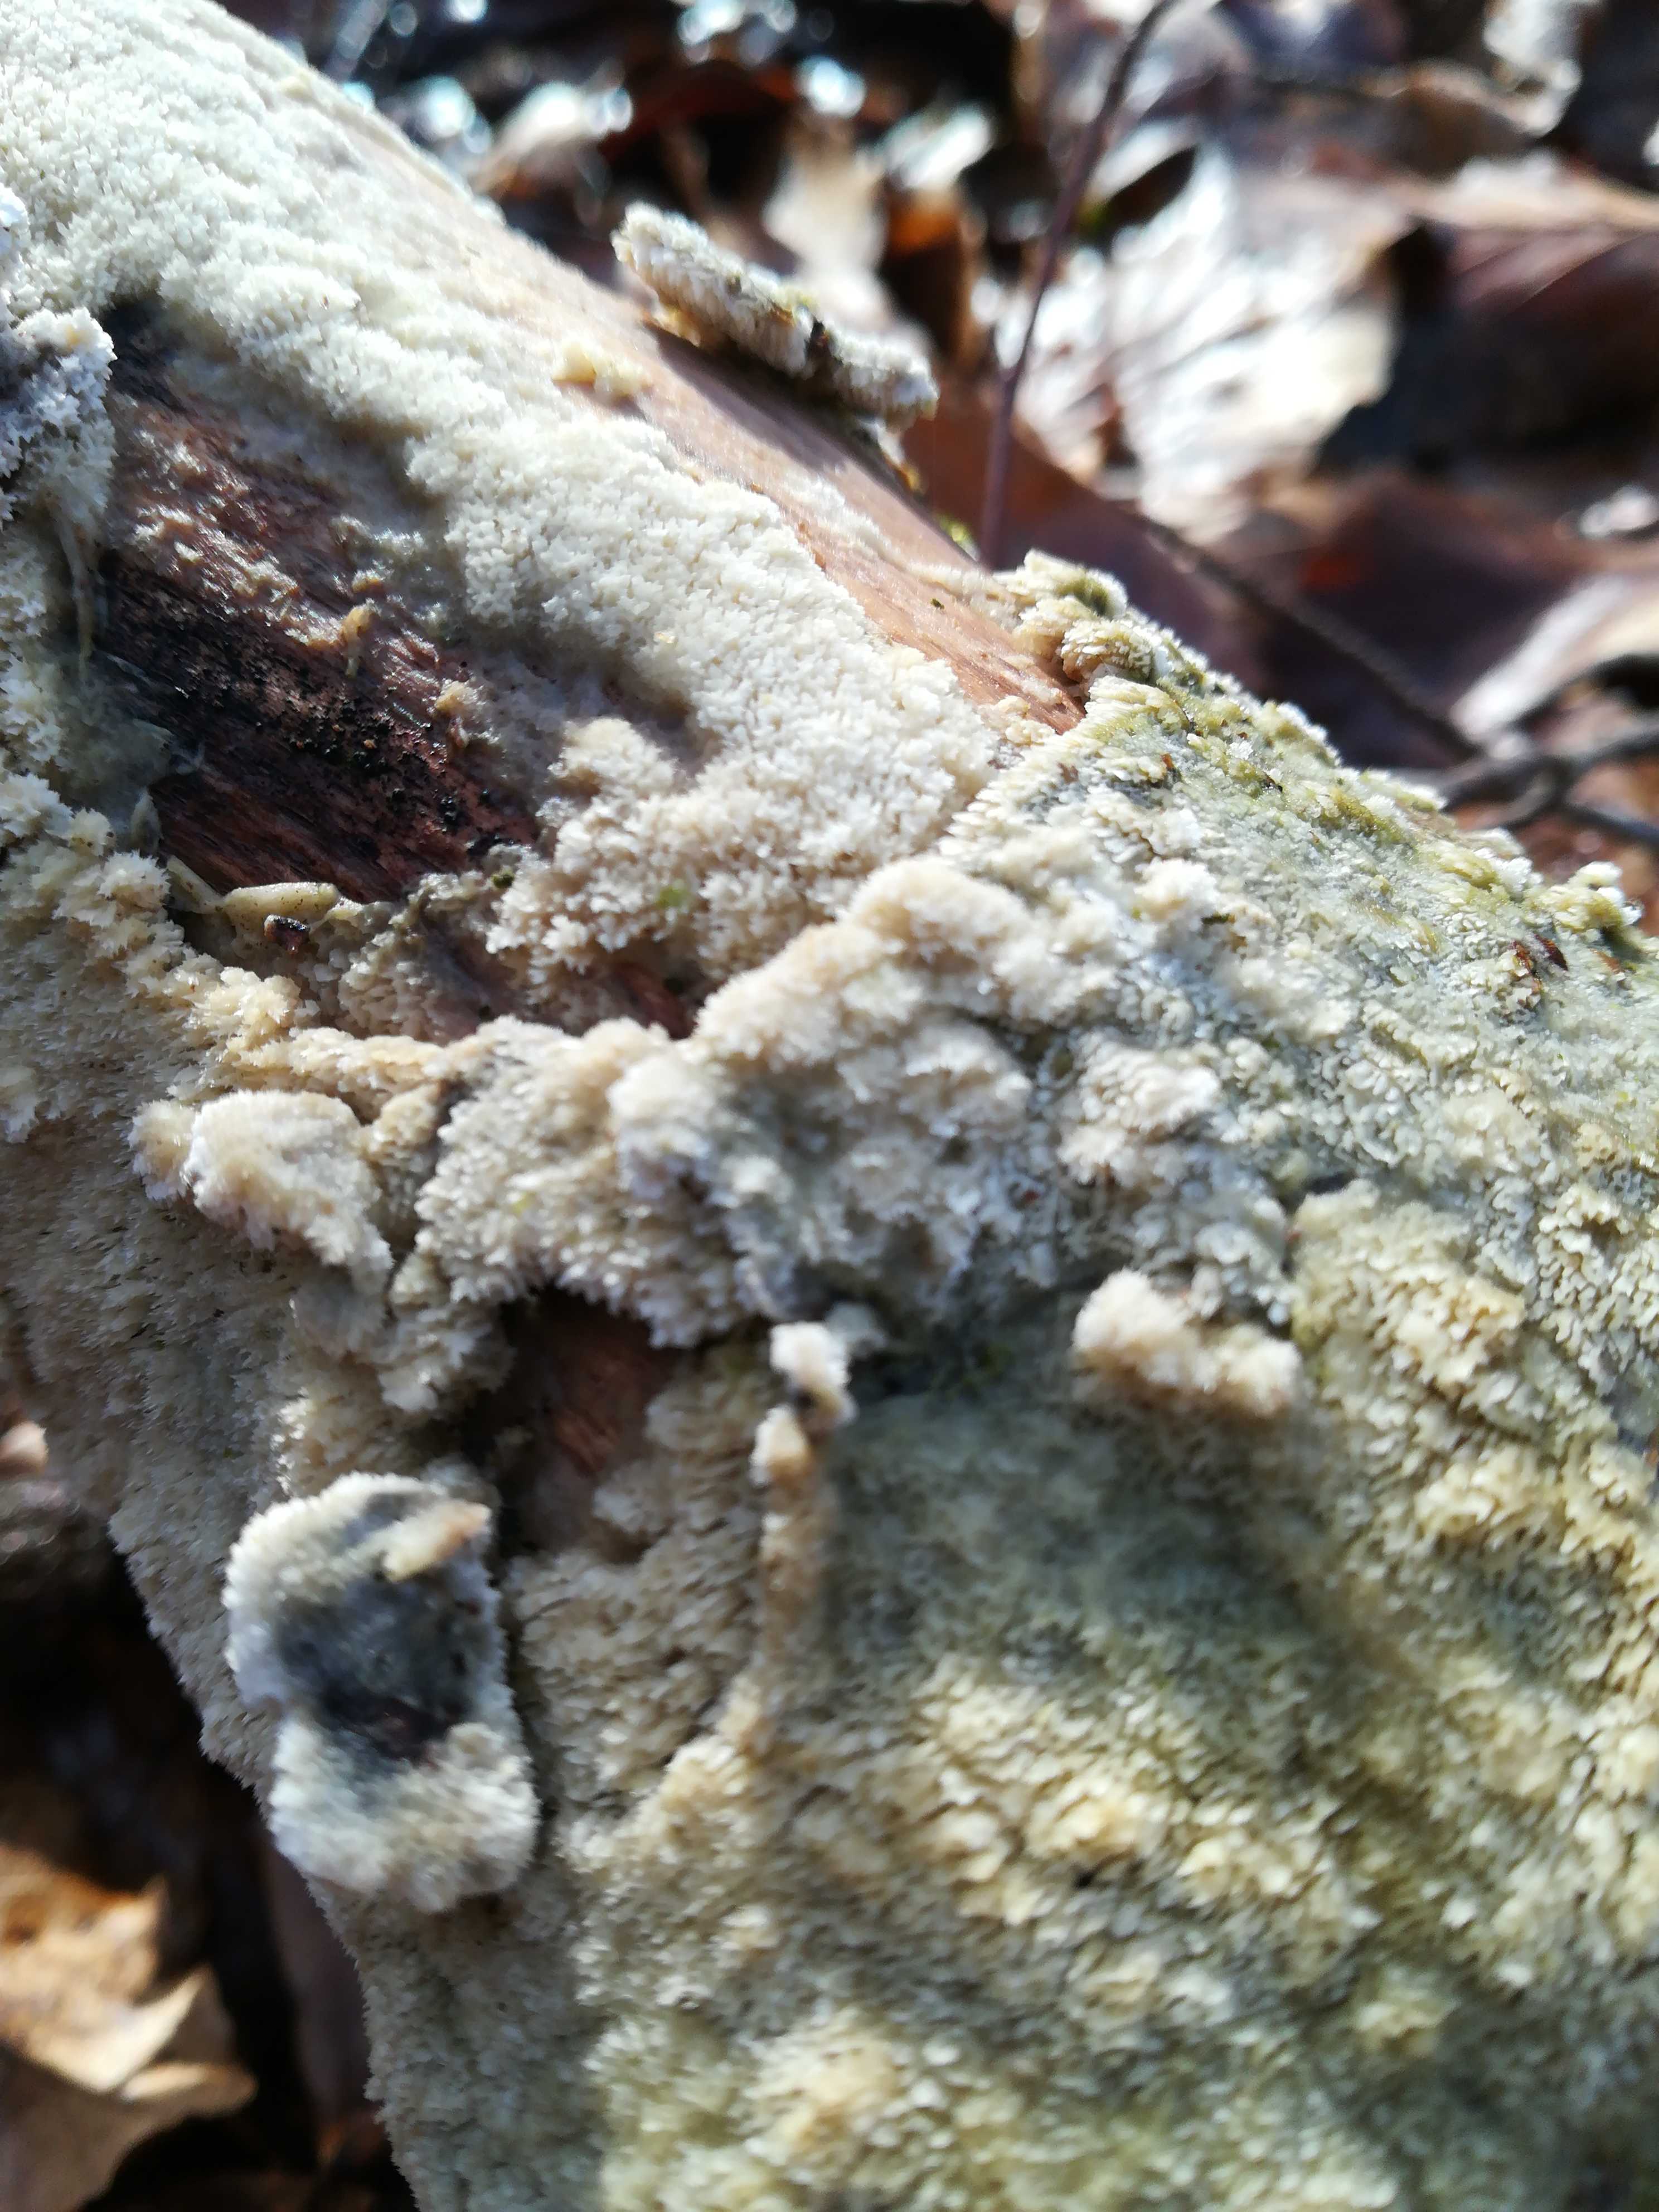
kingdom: Fungi
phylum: Basidiomycota
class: Agaricomycetes
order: Hymenochaetales
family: Schizoporaceae
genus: Xylodon
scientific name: Xylodon
